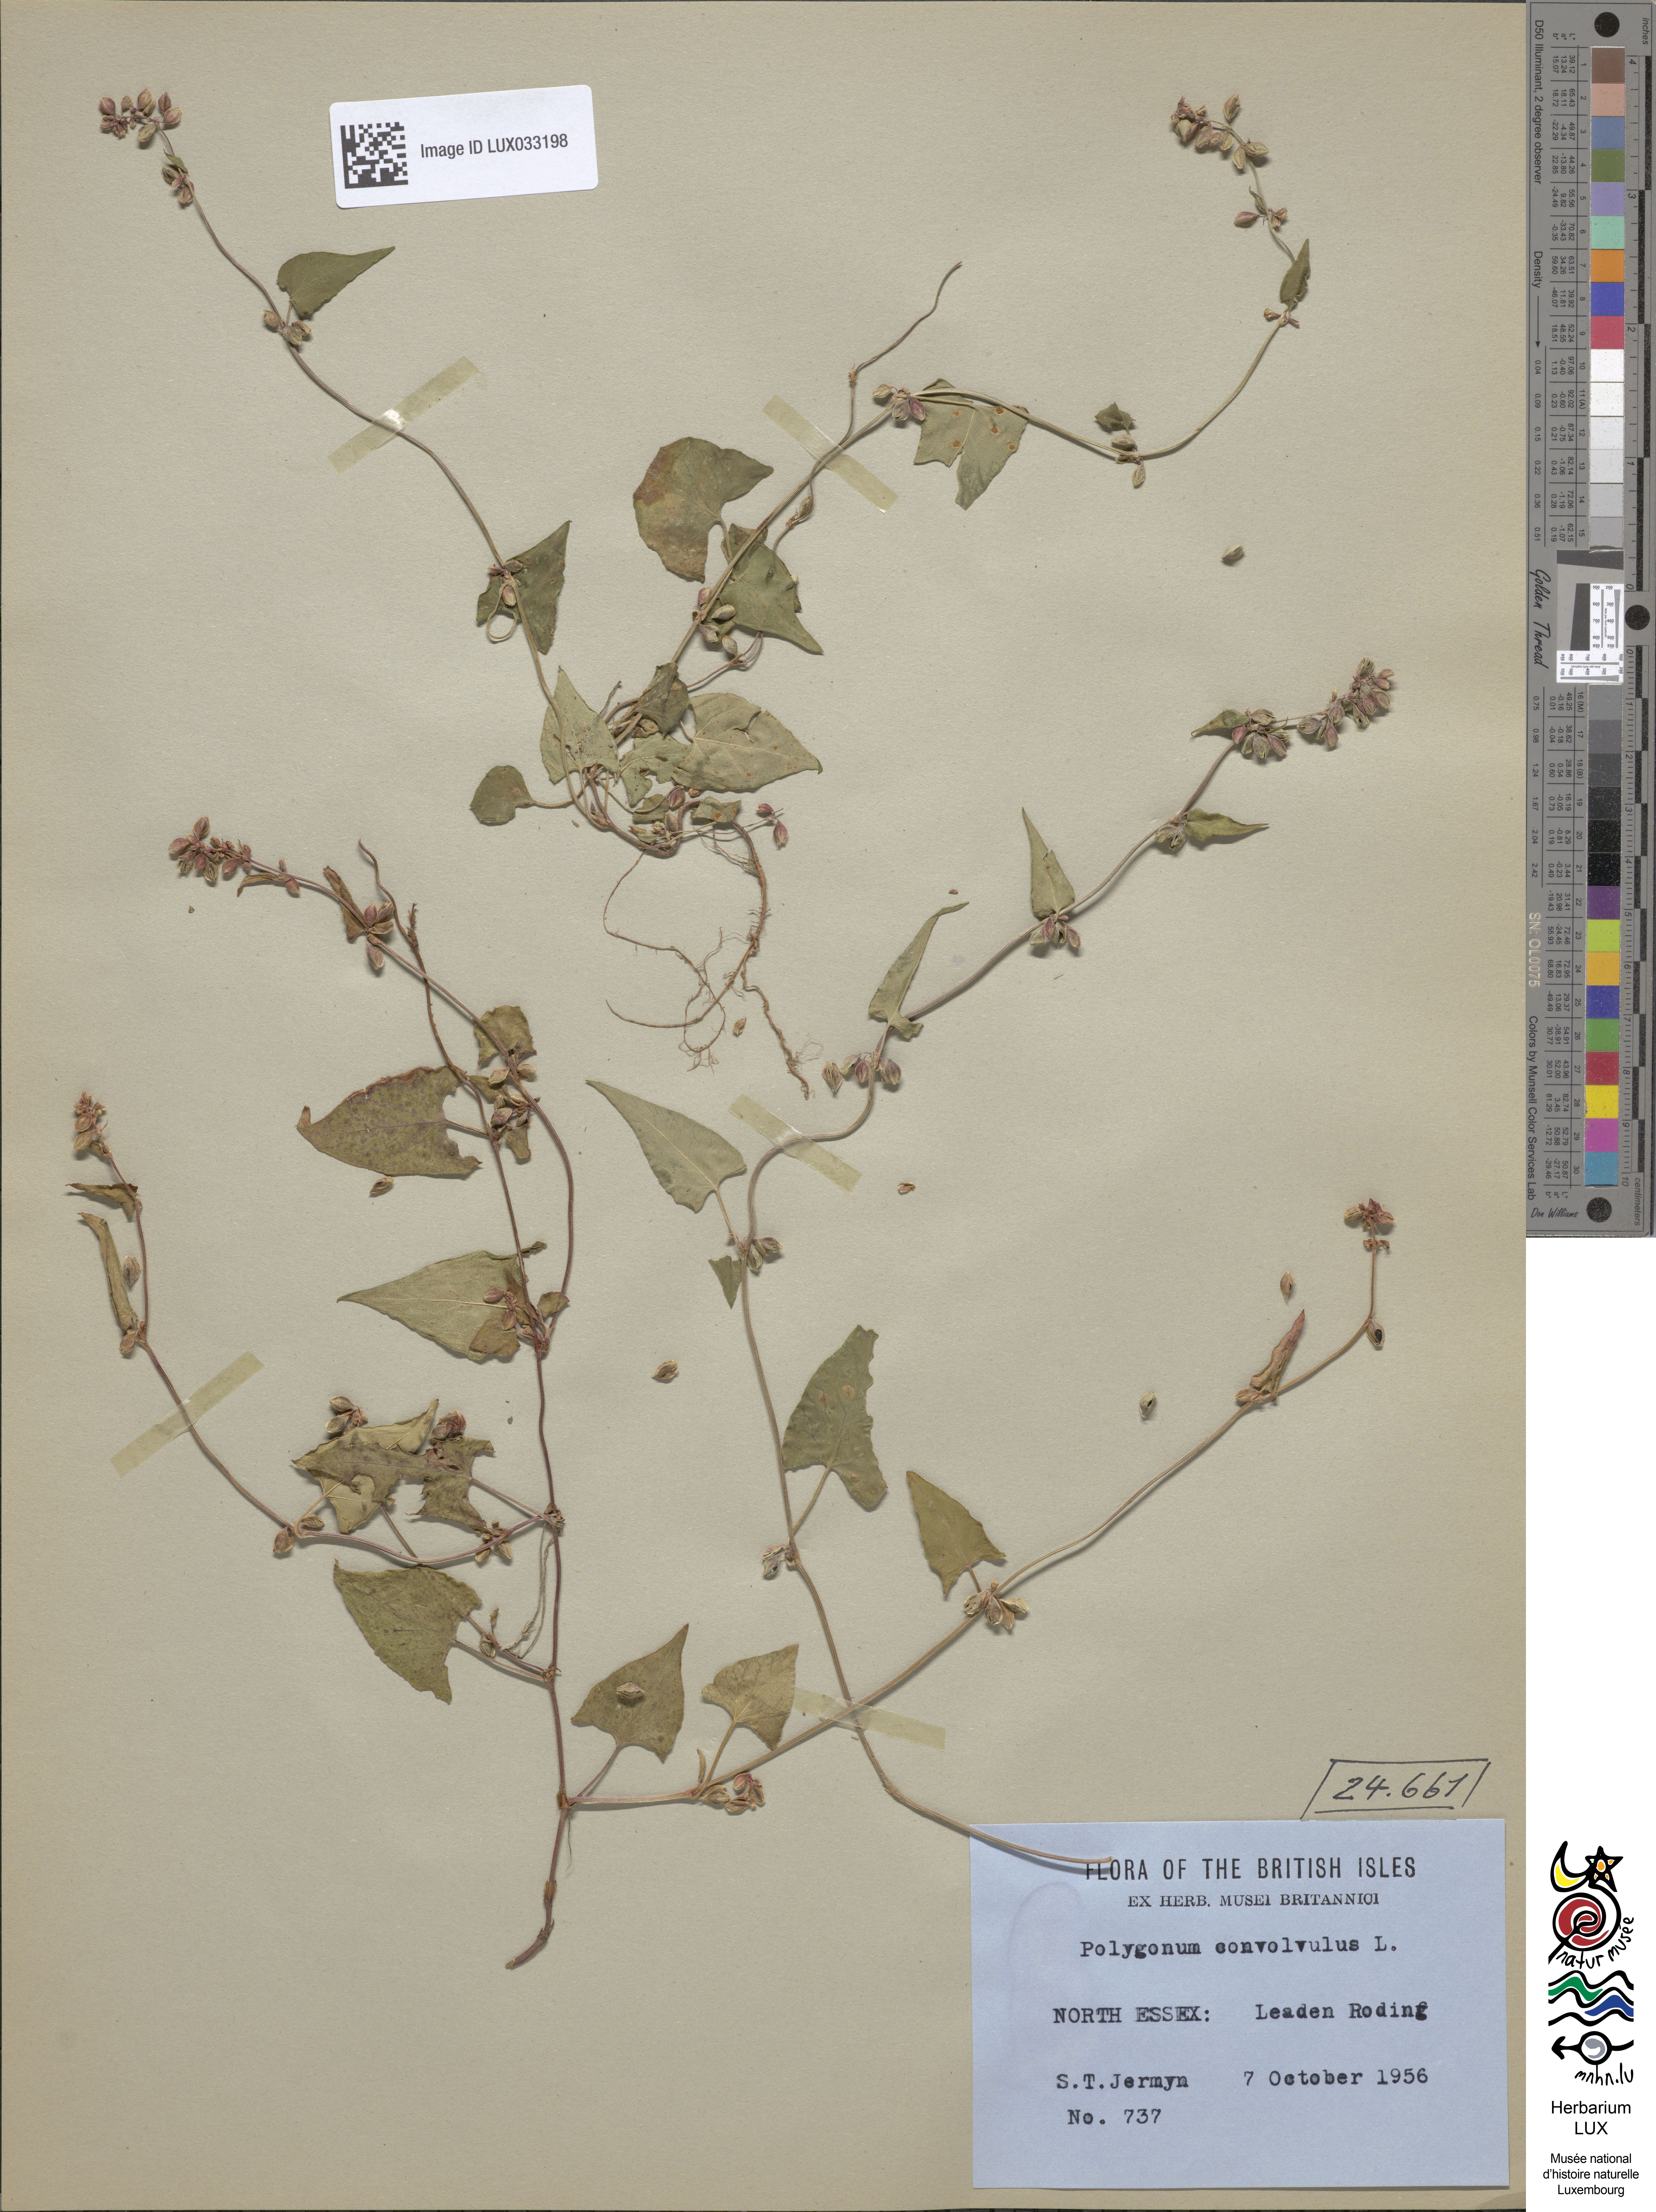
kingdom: Plantae
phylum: Tracheophyta
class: Magnoliopsida
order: Caryophyllales
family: Polygonaceae
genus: Fallopia
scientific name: Fallopia convolvulus
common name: Black bindweed
